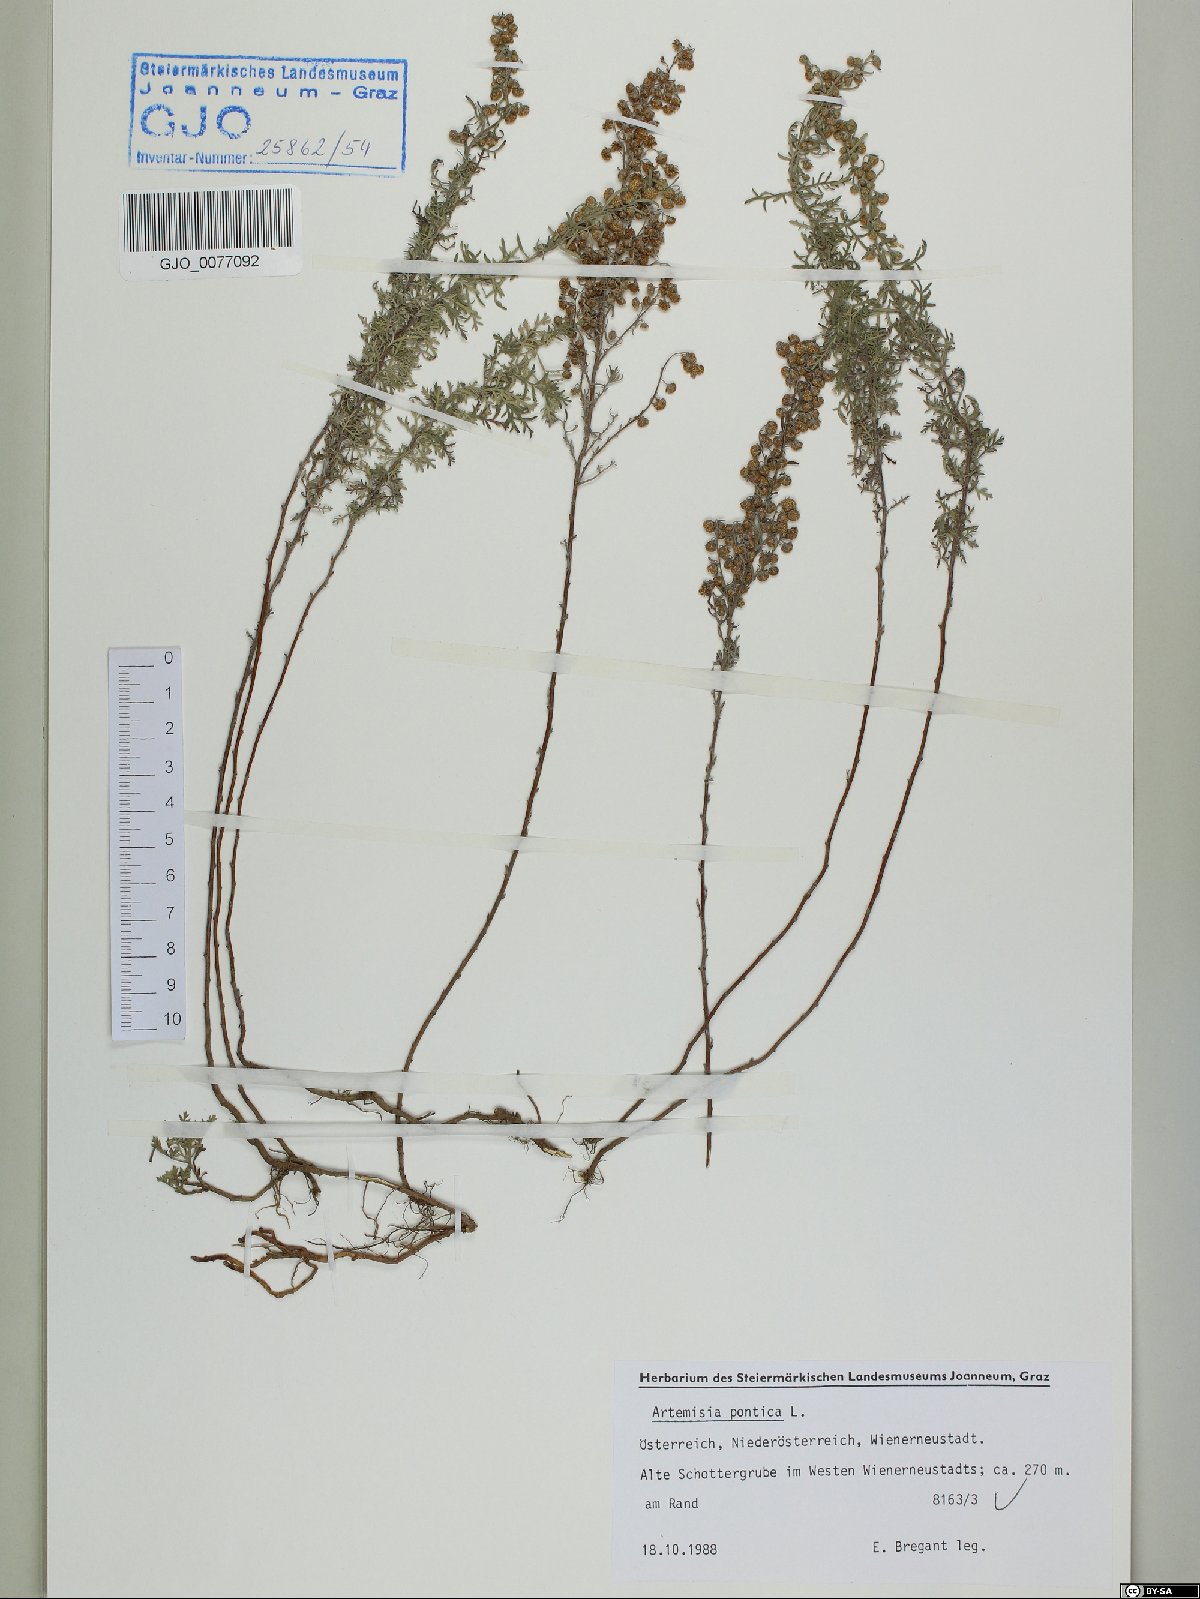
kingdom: Plantae
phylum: Tracheophyta
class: Magnoliopsida
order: Asterales
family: Asteraceae
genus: Artemisia
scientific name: Artemisia pontica
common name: Roman wormwood
